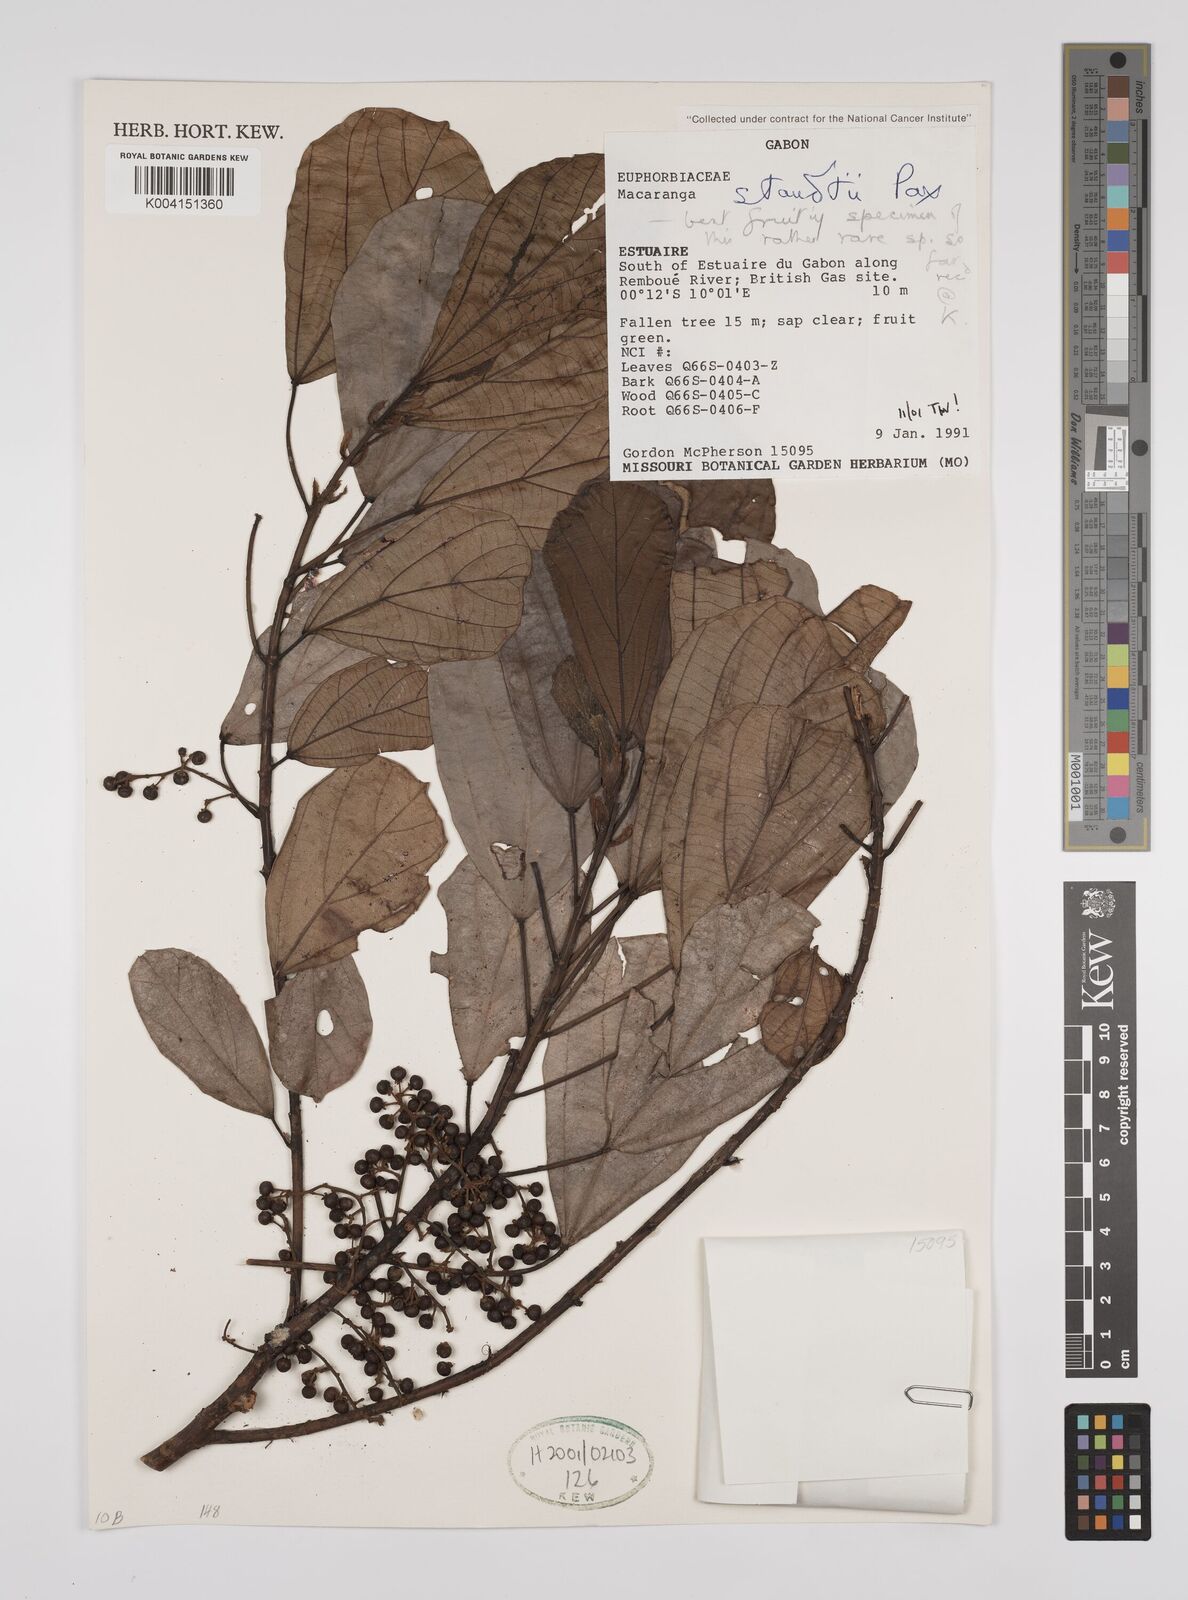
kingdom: Plantae
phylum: Tracheophyta
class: Magnoliopsida
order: Malpighiales
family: Euphorbiaceae
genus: Macaranga
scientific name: Macaranga staudtii
